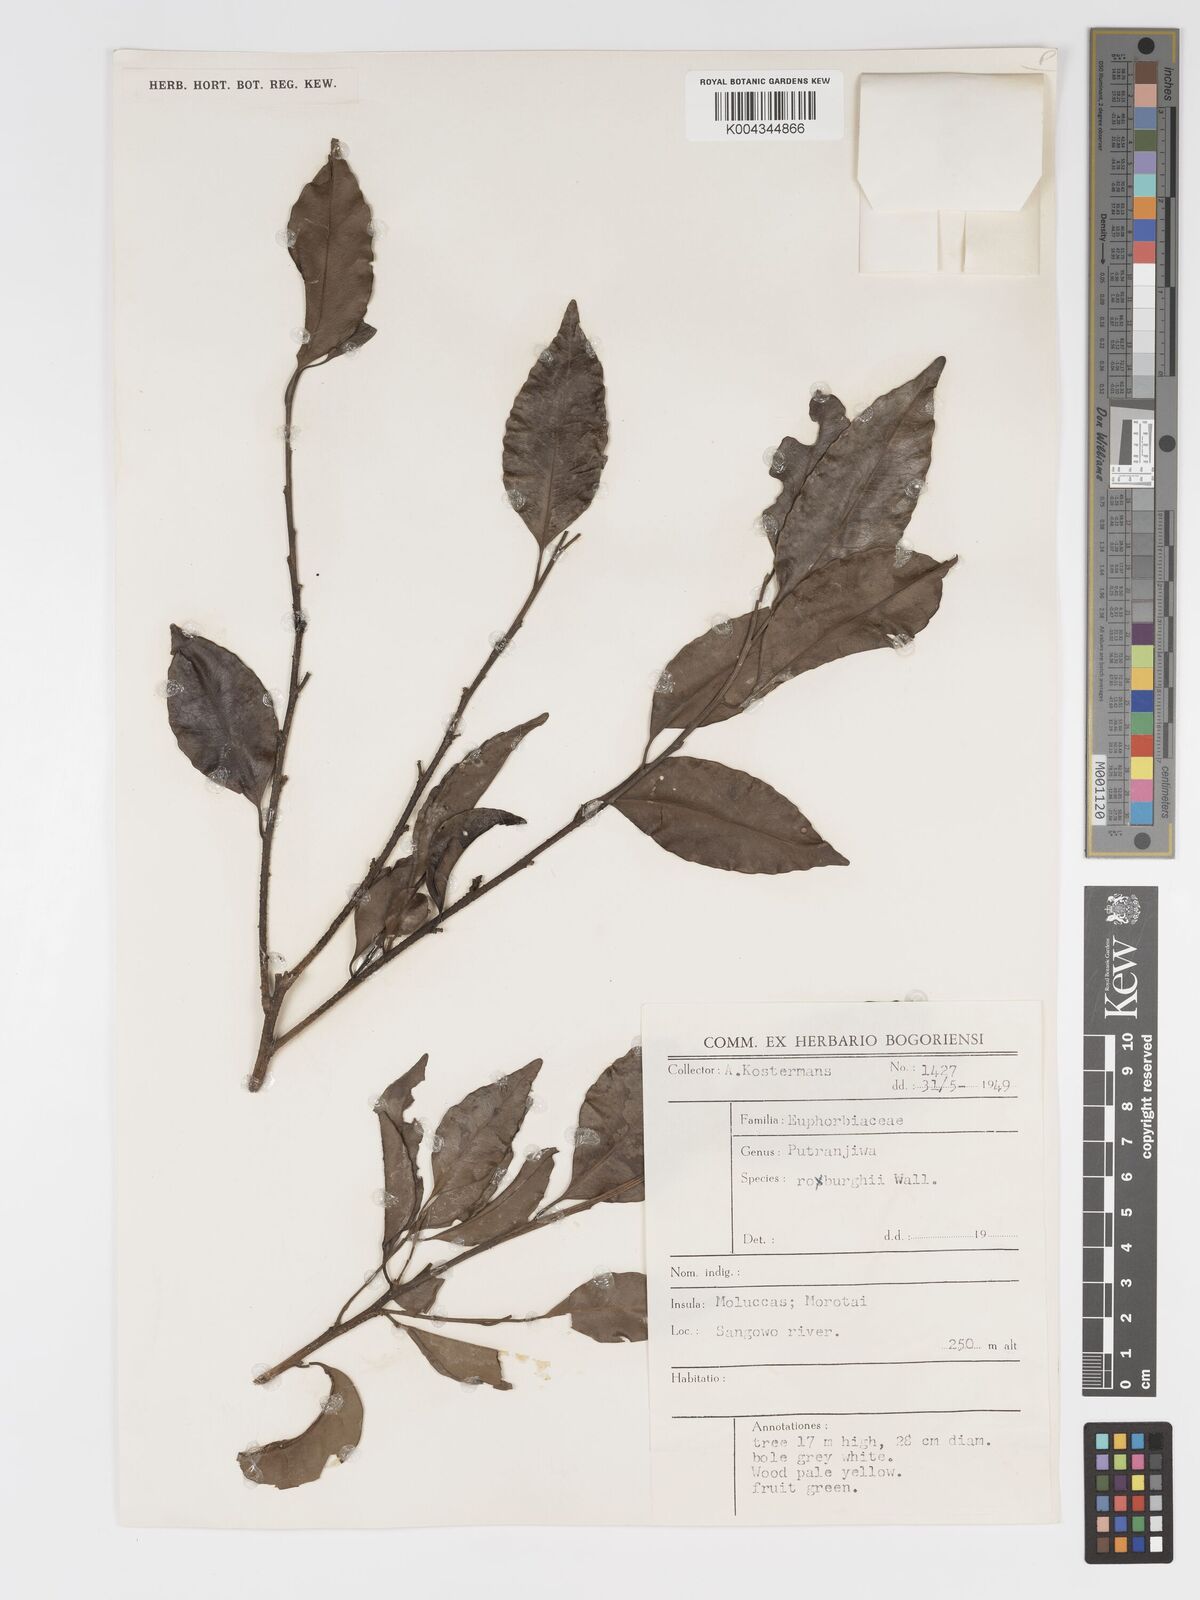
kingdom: Plantae
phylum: Tracheophyta
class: Magnoliopsida
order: Malpighiales
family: Putranjivaceae
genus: Putranjiva
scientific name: Putranjiva roxburghii
